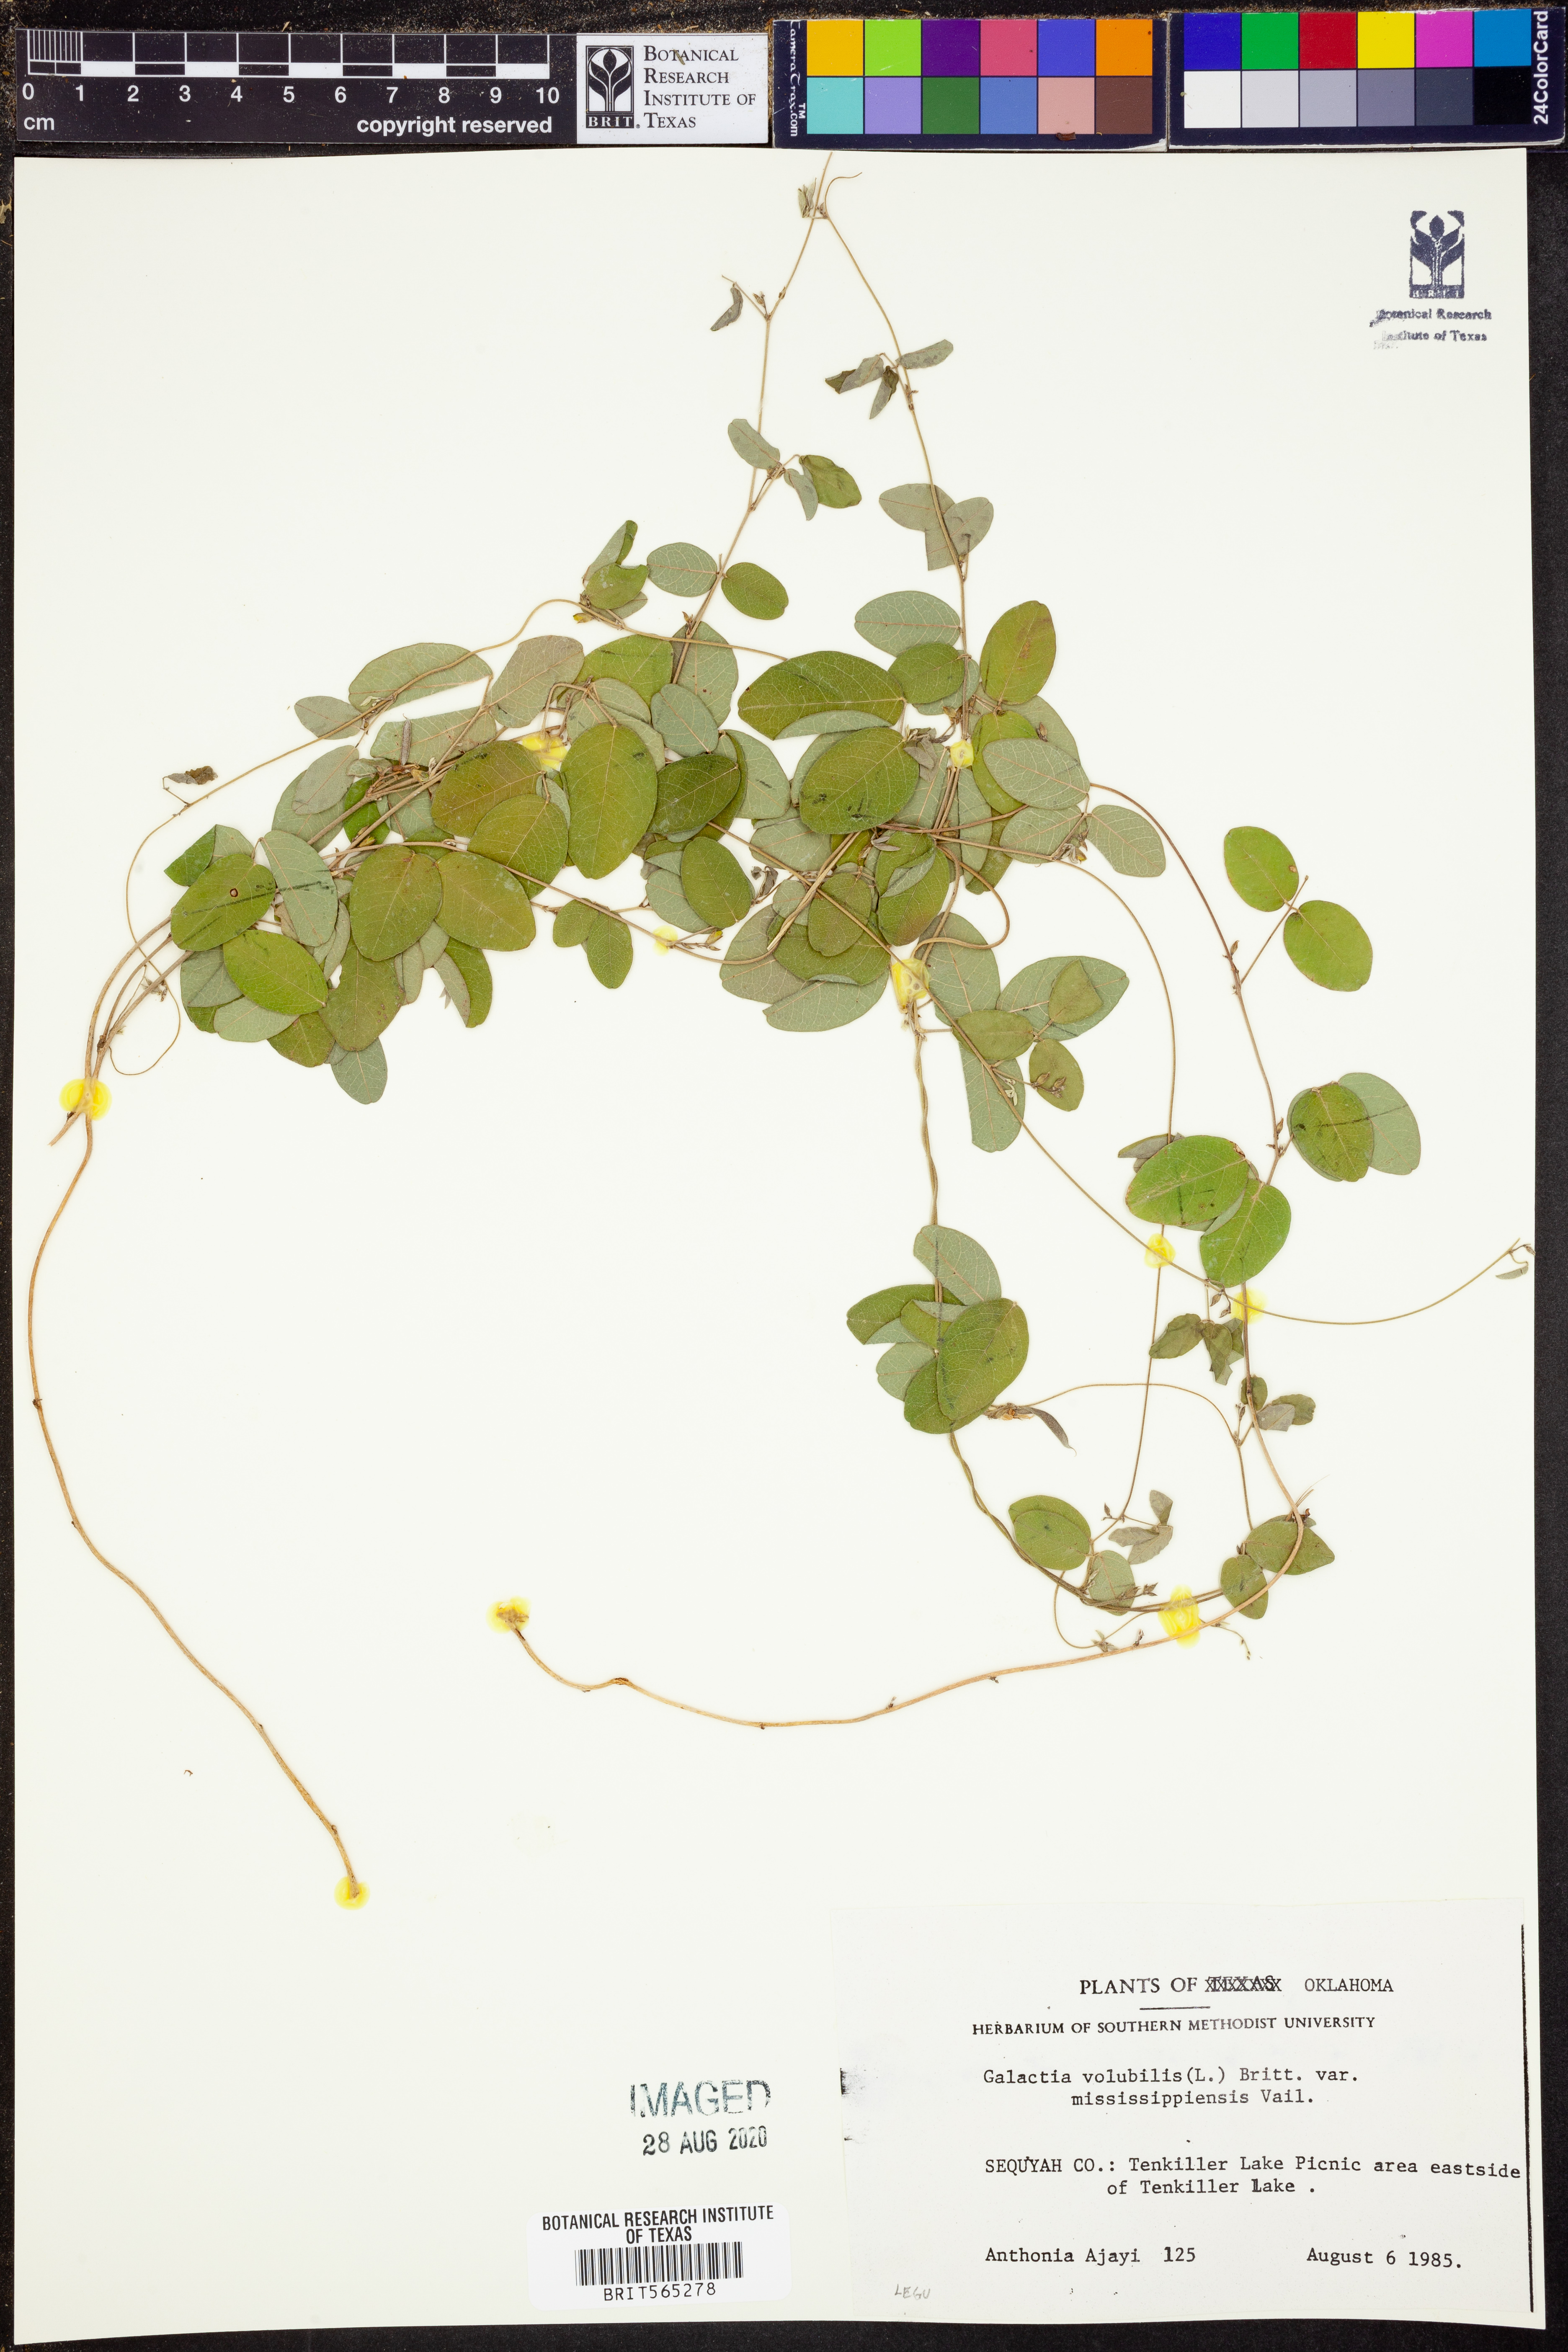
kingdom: Plantae
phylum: Tracheophyta
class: Magnoliopsida
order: Fabales
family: Fabaceae
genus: Galactia
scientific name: Galactia volubilis
